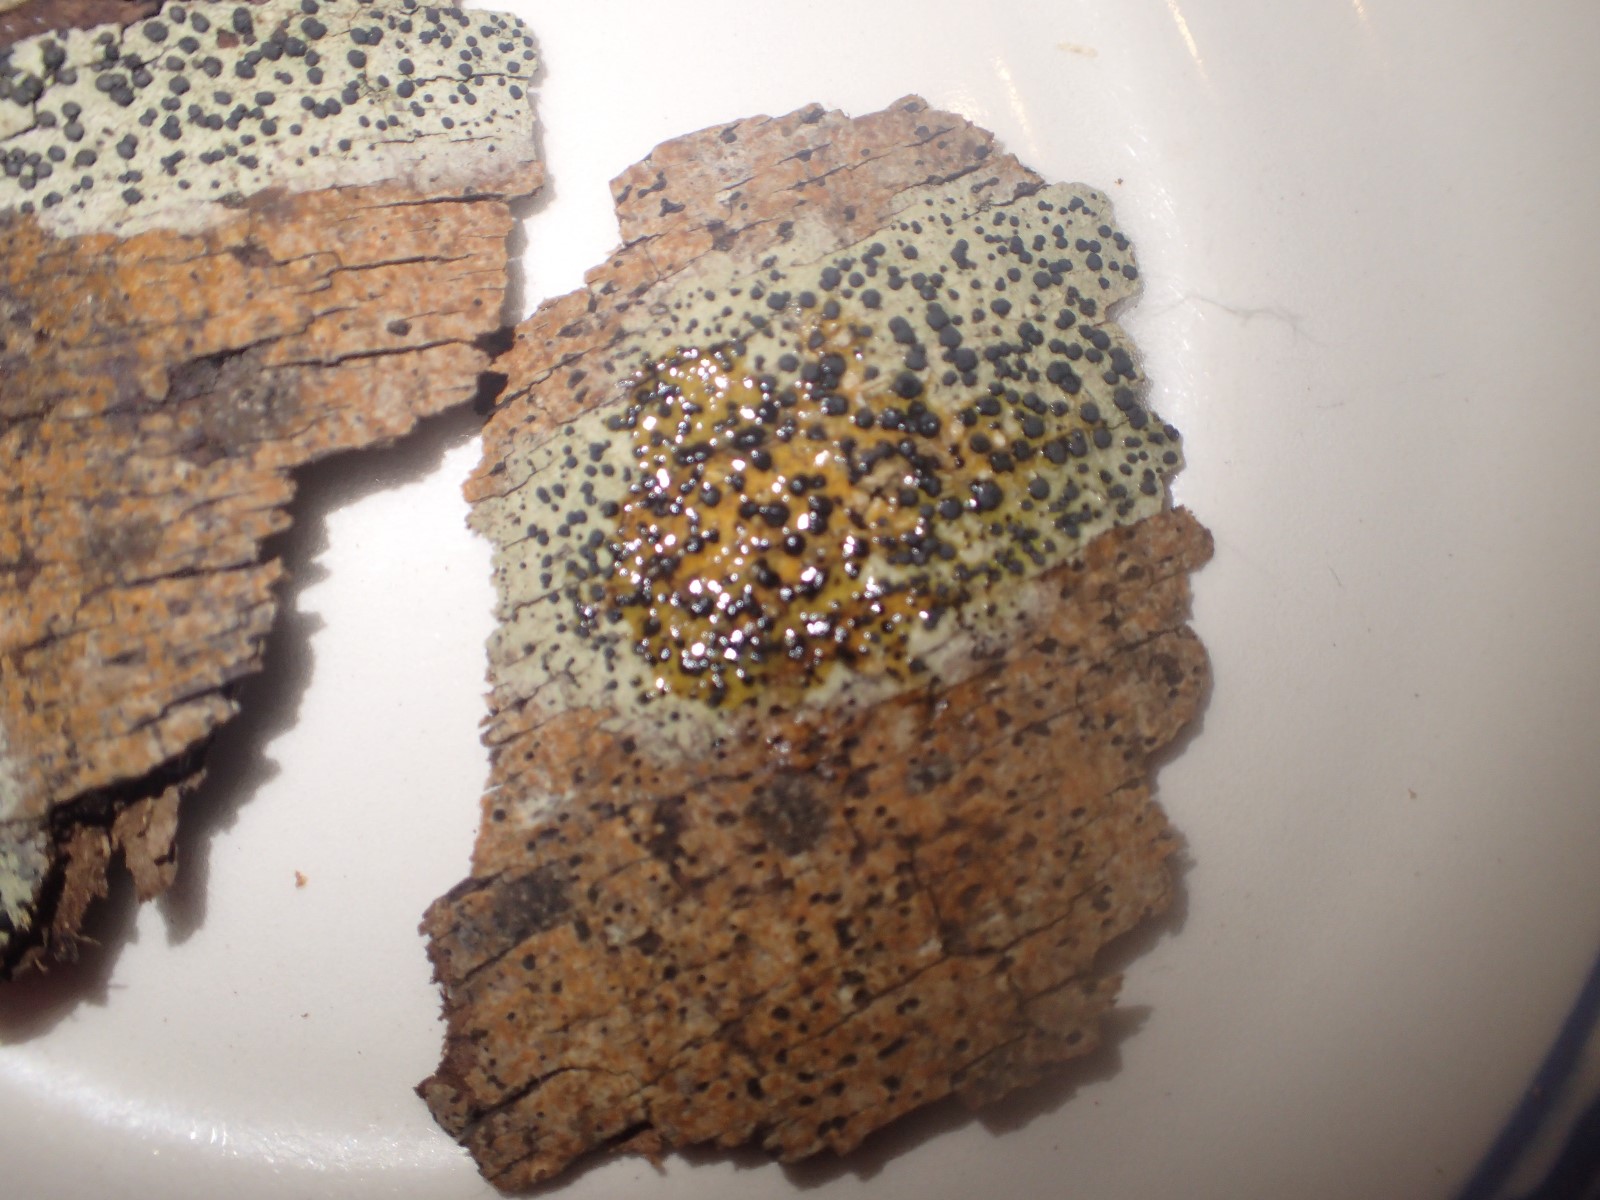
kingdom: Fungi
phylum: Ascomycota
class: Lecanoromycetes
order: Lecanorales
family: Lecanoraceae
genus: Lecidella
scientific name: Lecidella elaeochroma
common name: grågrøn skivelav
